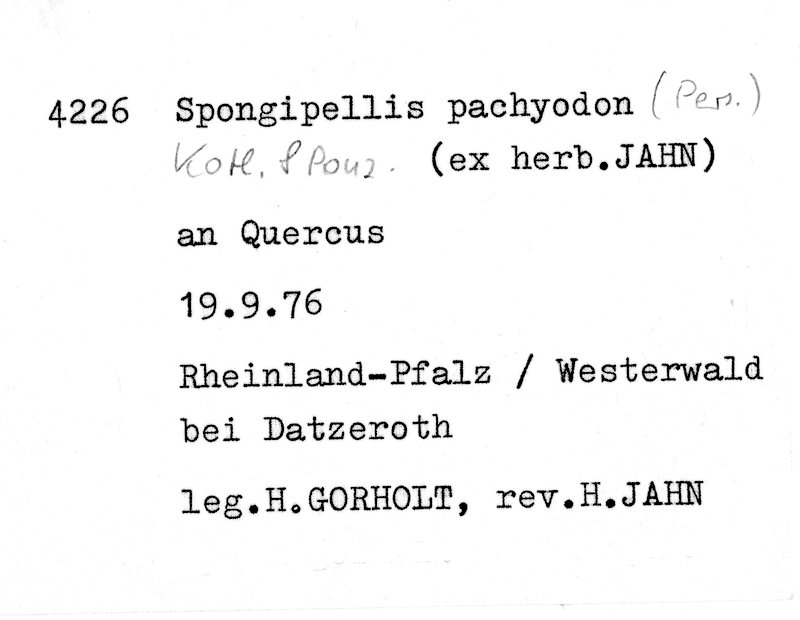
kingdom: Fungi
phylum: Basidiomycota
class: Agaricomycetes
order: Polyporales
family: Meruliaceae
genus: Irpiciporus
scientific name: Irpiciporus pachyodon
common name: Marshmallow polypore
